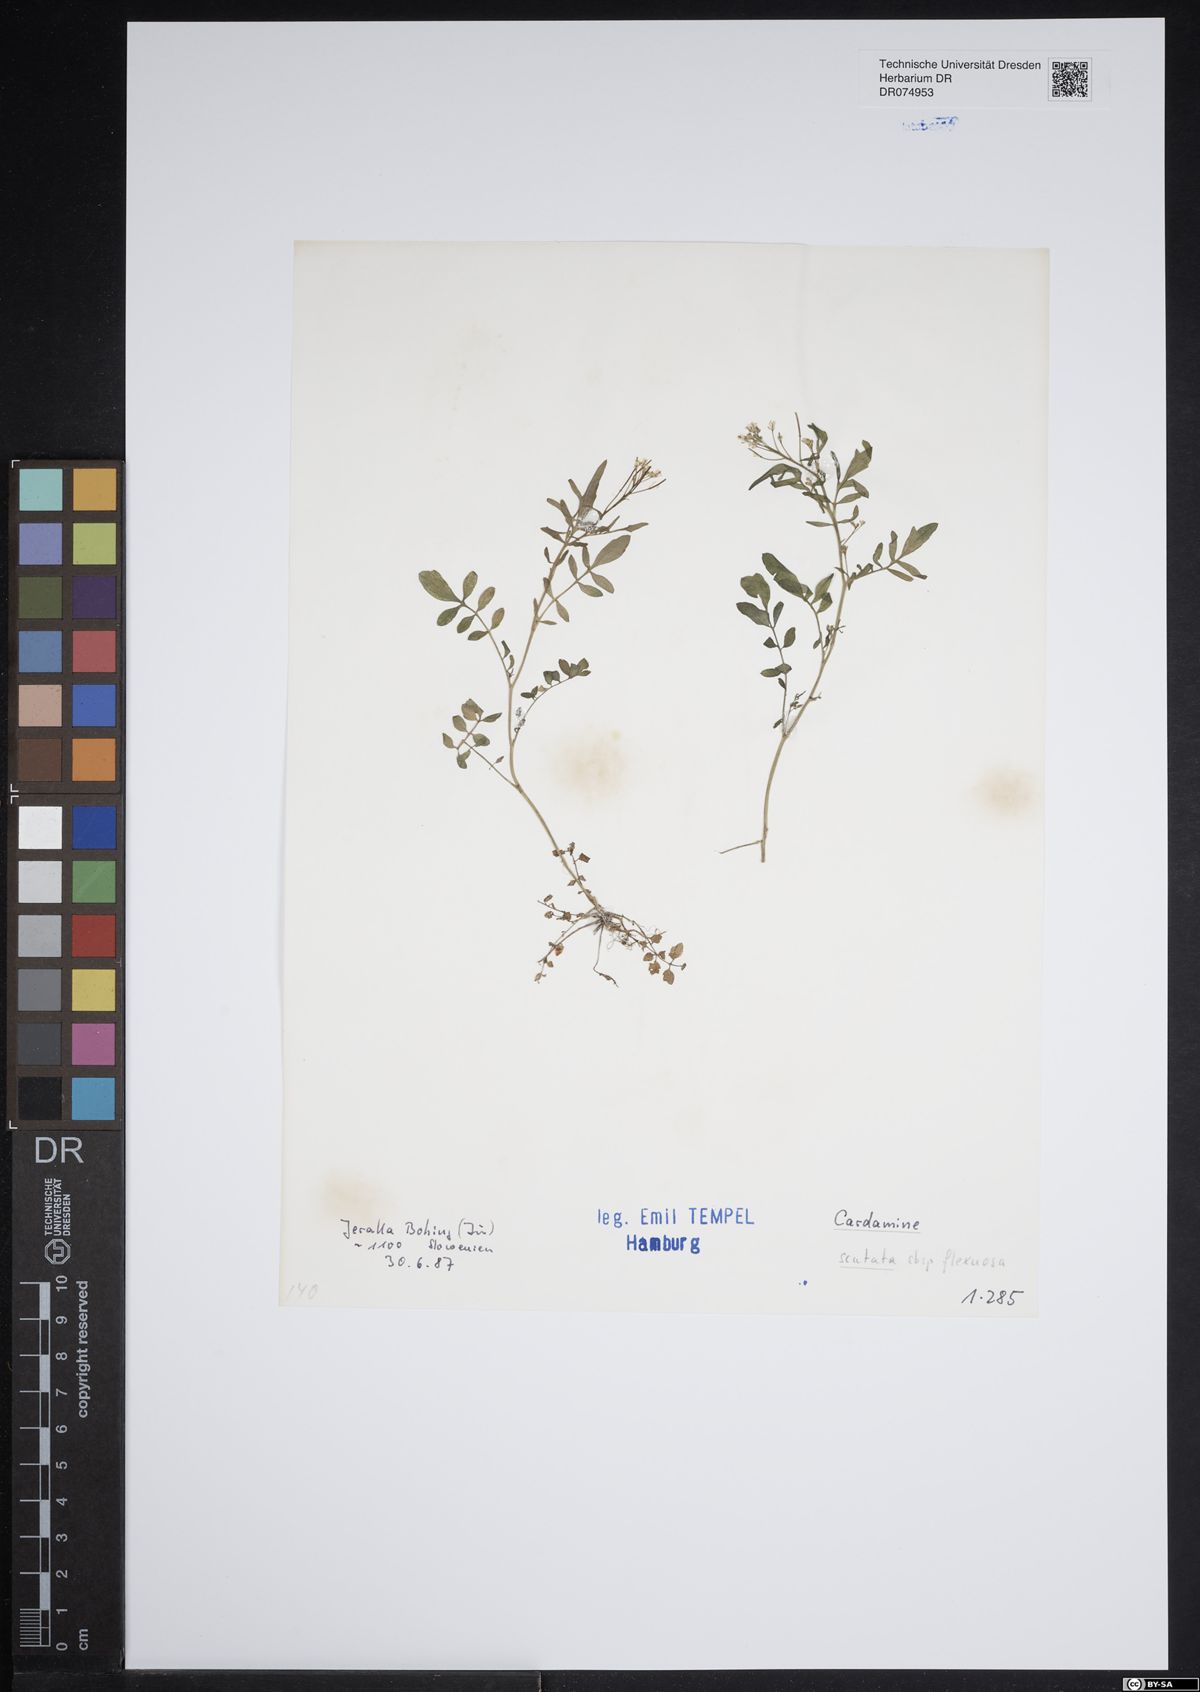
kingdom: Plantae
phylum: Tracheophyta
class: Magnoliopsida
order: Brassicales
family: Brassicaceae
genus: Cardamine
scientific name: Cardamine scutata
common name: Japanese bittercress
